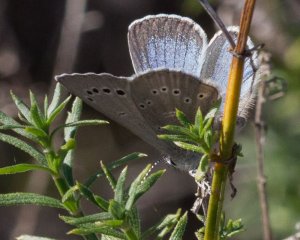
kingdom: Animalia
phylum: Arthropoda
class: Insecta
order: Lepidoptera
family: Lycaenidae
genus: Glaucopsyche
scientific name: Glaucopsyche lygdamus
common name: Silvery Blue
